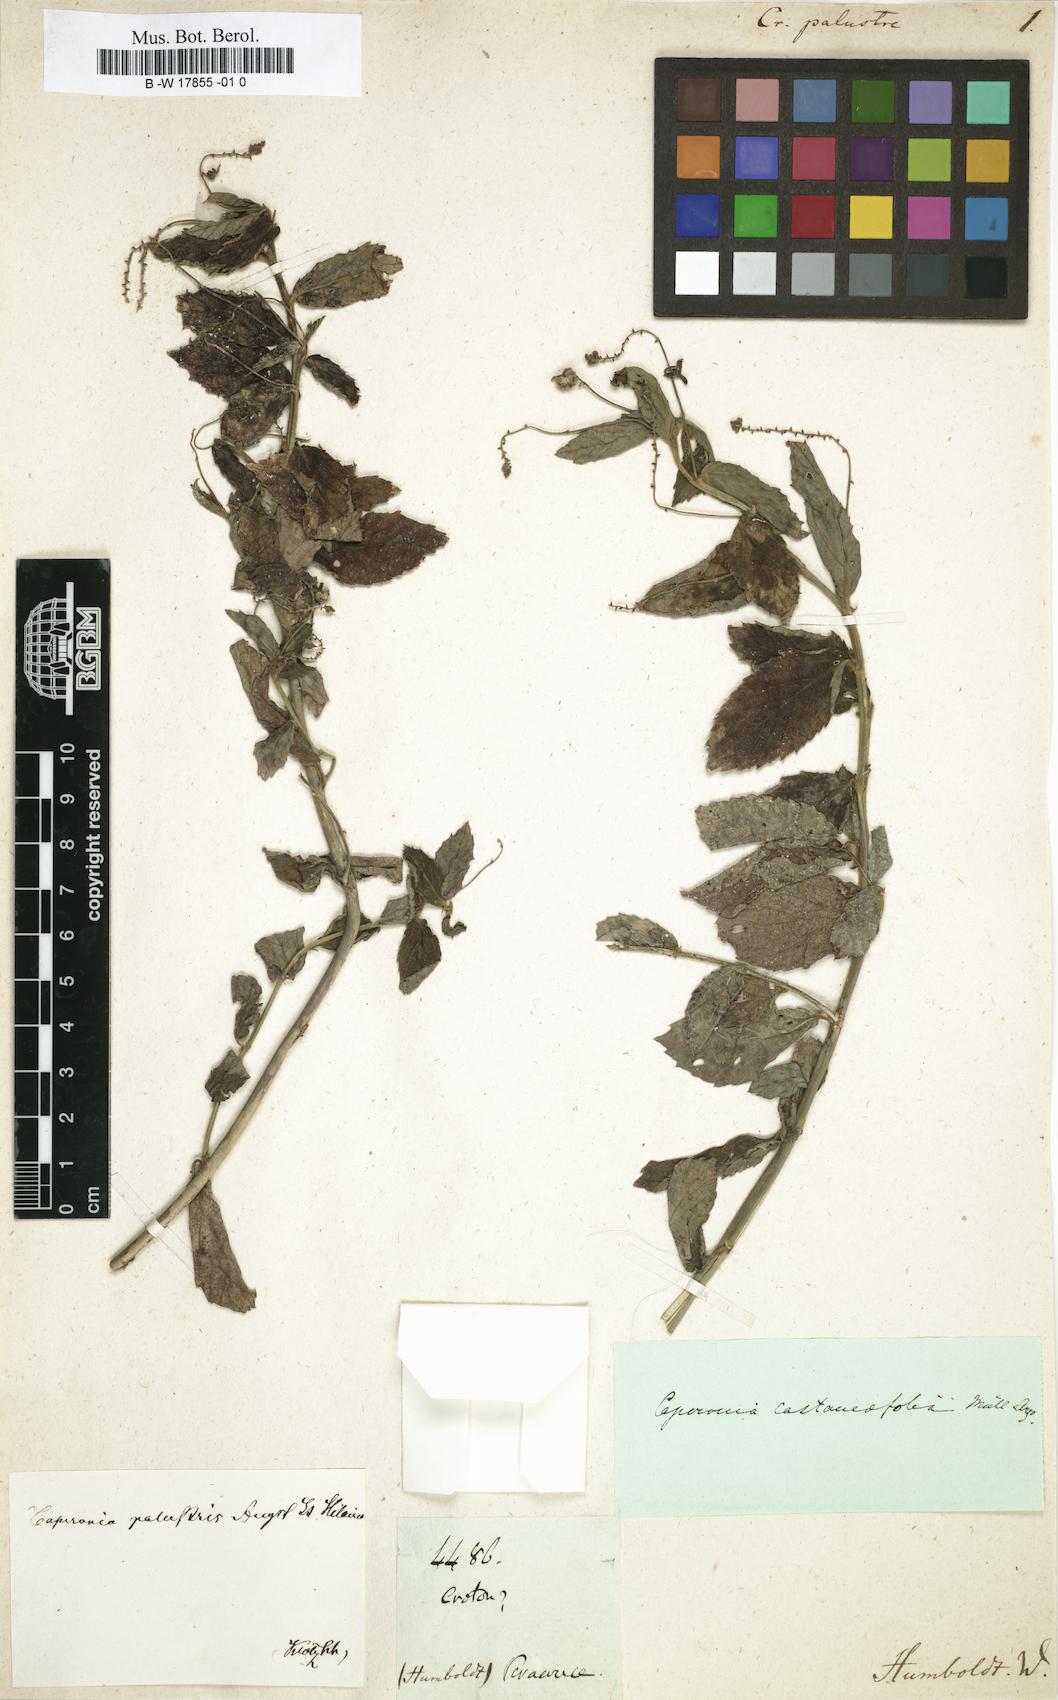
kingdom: Plantae
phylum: Tracheophyta
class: Magnoliopsida
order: Malpighiales
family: Euphorbiaceae
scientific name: Euphorbiaceae
